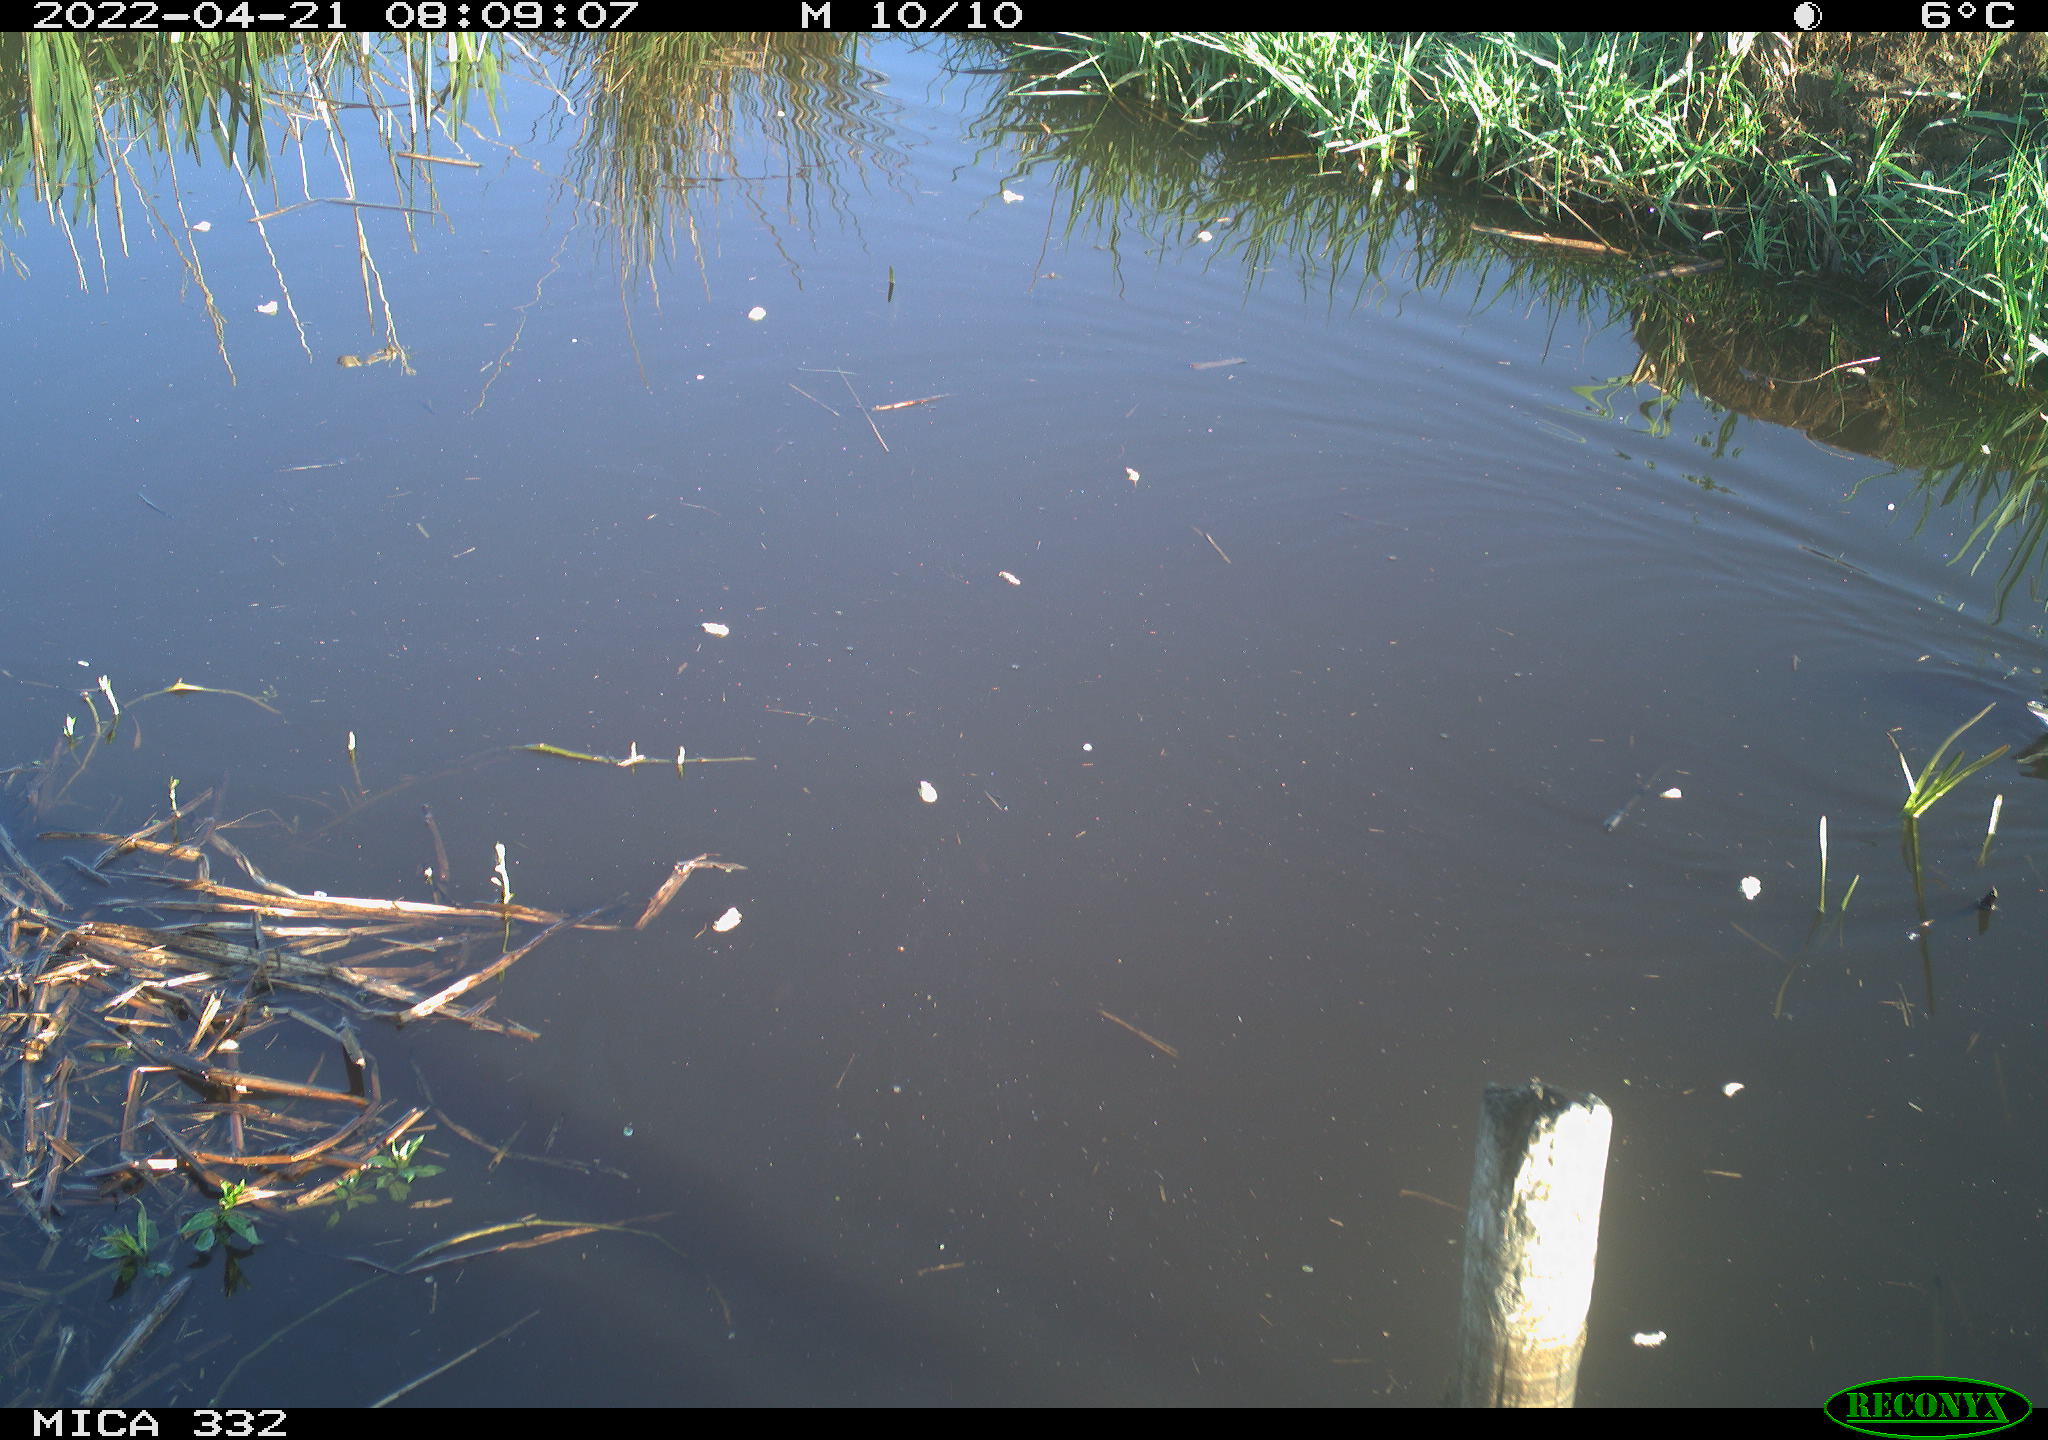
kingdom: Animalia
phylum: Chordata
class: Aves
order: Gruiformes
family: Rallidae
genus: Gallinula
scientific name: Gallinula chloropus
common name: Common moorhen
